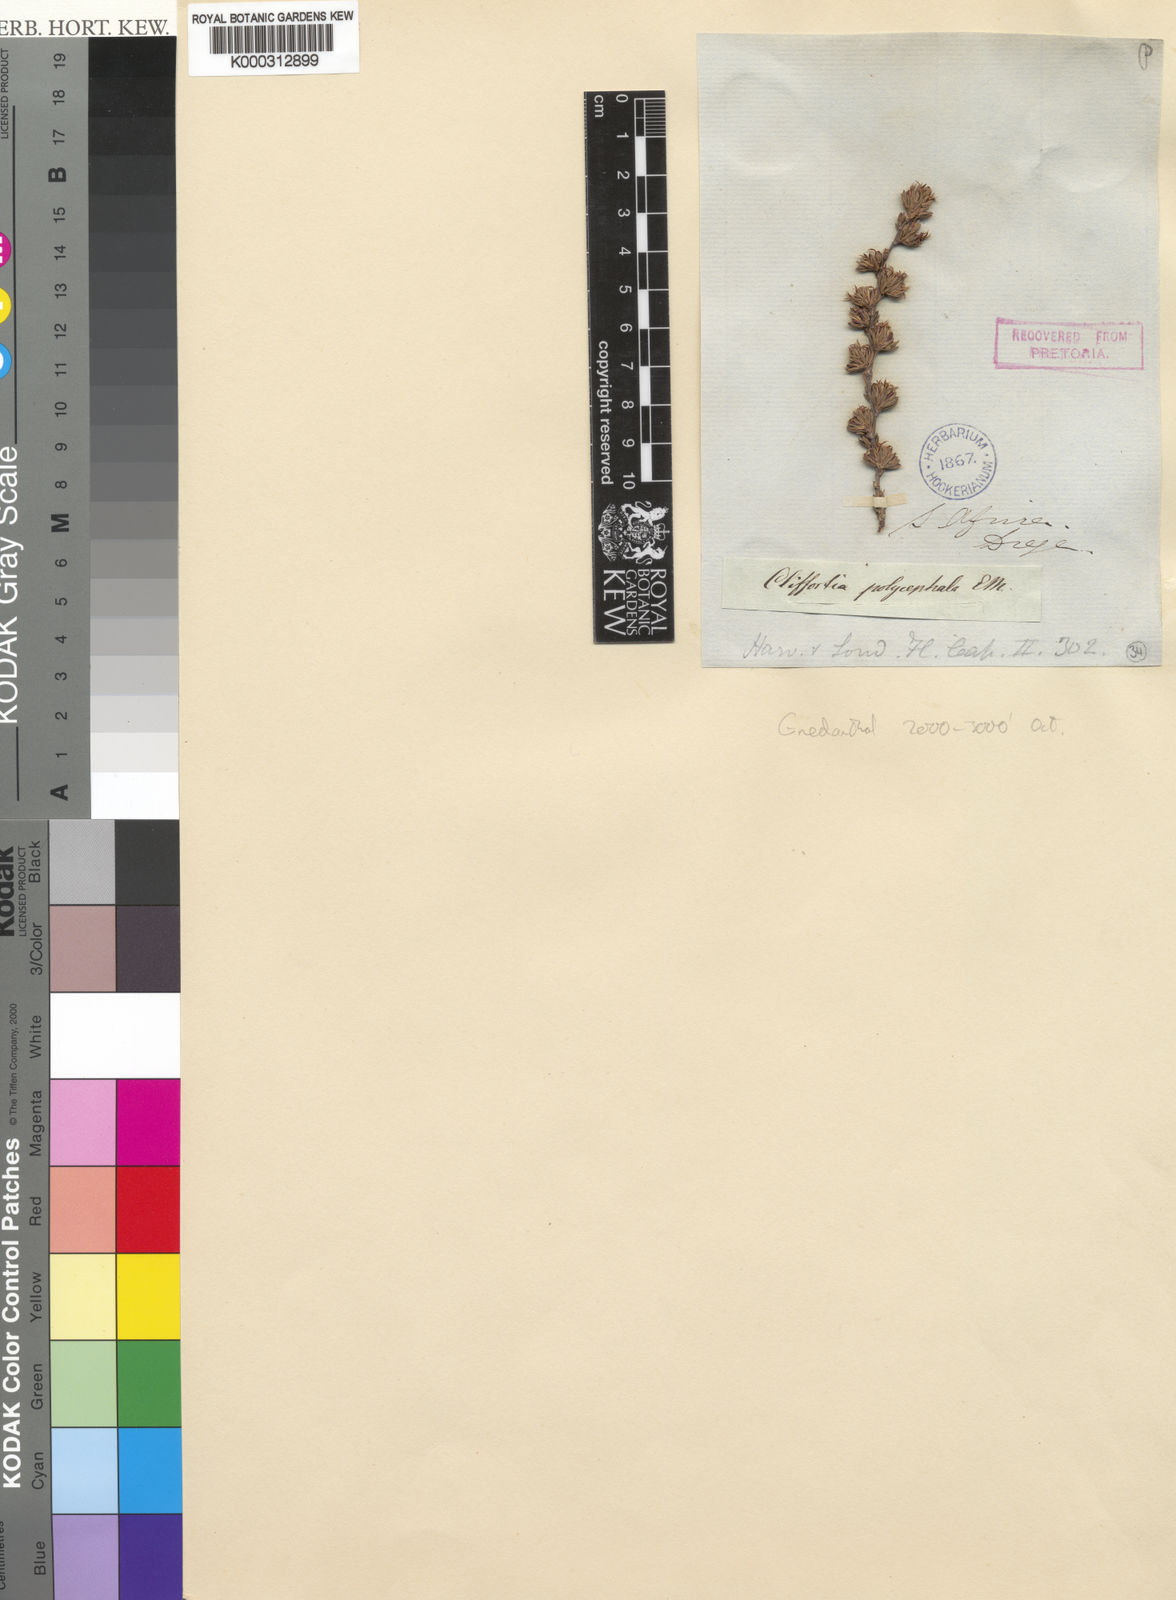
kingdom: Plantae
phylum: Tracheophyta
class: Magnoliopsida
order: Rosales
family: Rosaceae
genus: Cliffortia
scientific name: Cliffortia
